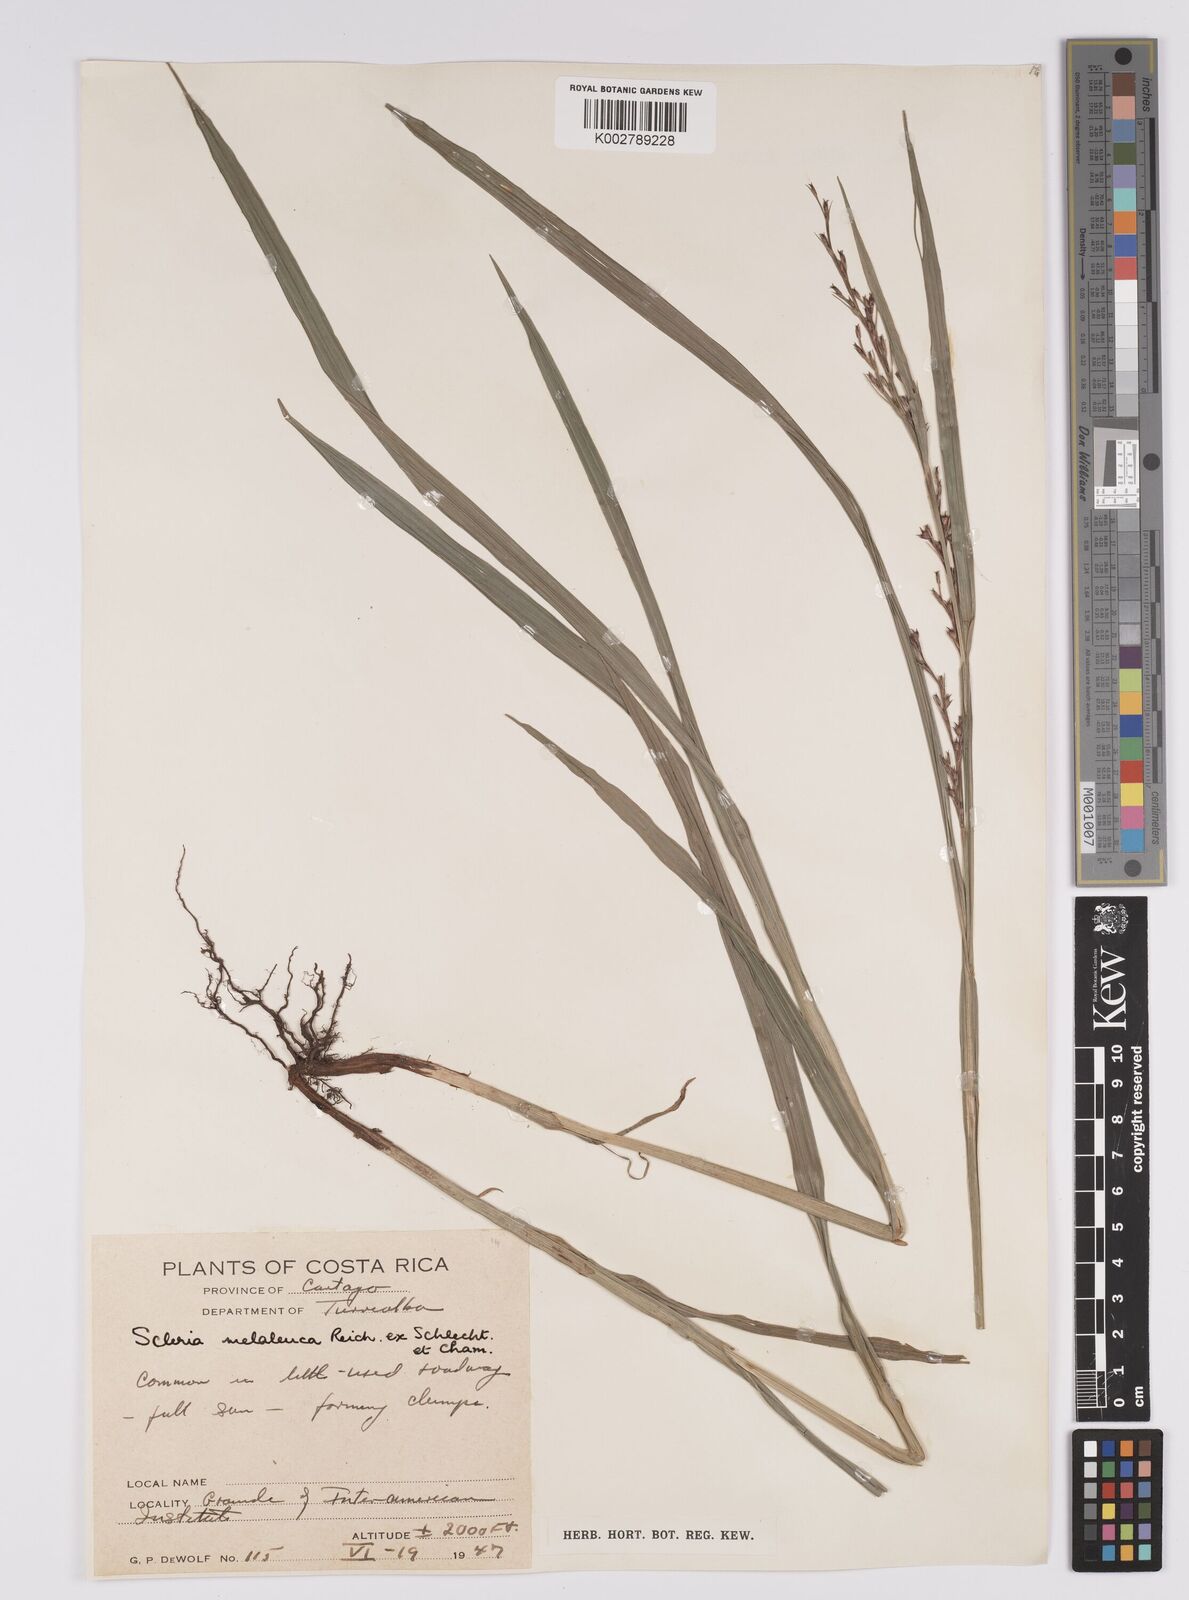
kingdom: Plantae
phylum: Tracheophyta
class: Liliopsida
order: Poales
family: Cyperaceae
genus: Scleria
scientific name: Scleria gaertneri
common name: Cortadera blanca
